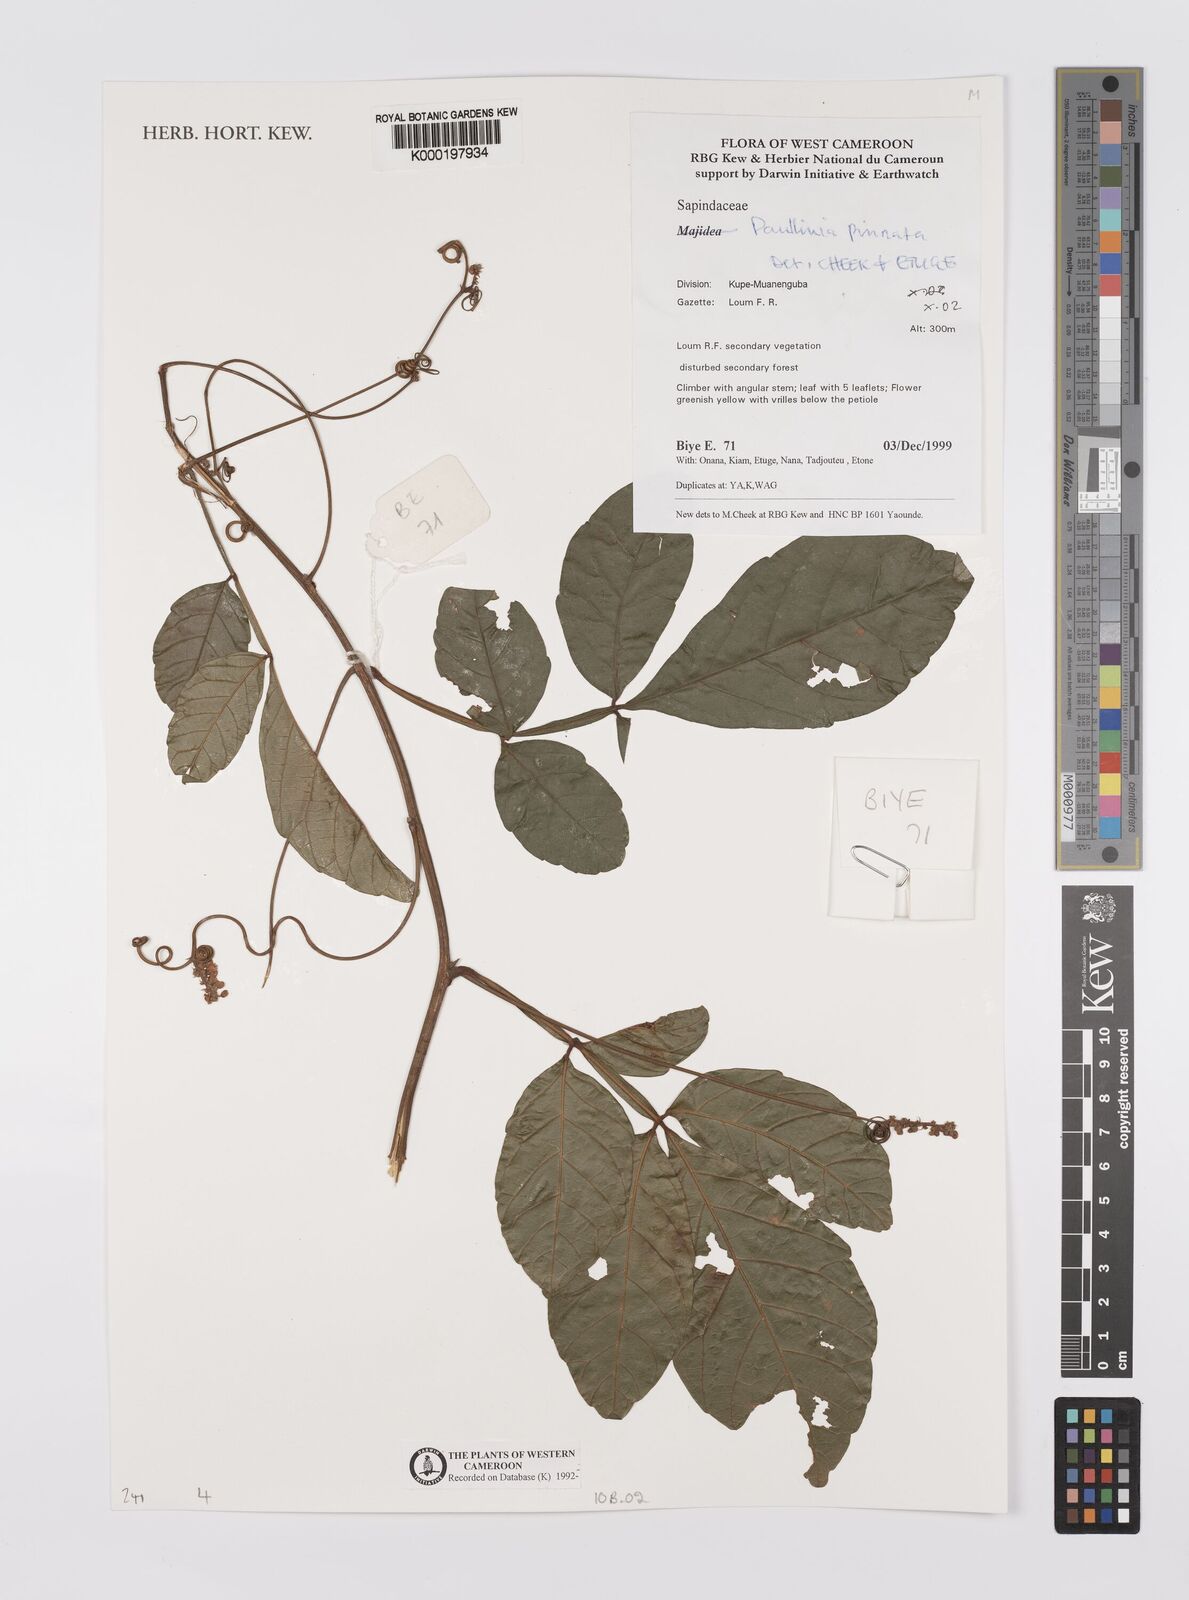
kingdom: Plantae
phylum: Tracheophyta
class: Magnoliopsida
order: Sapindales
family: Sapindaceae
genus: Paullinia
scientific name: Paullinia pinnata
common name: Barbasco
